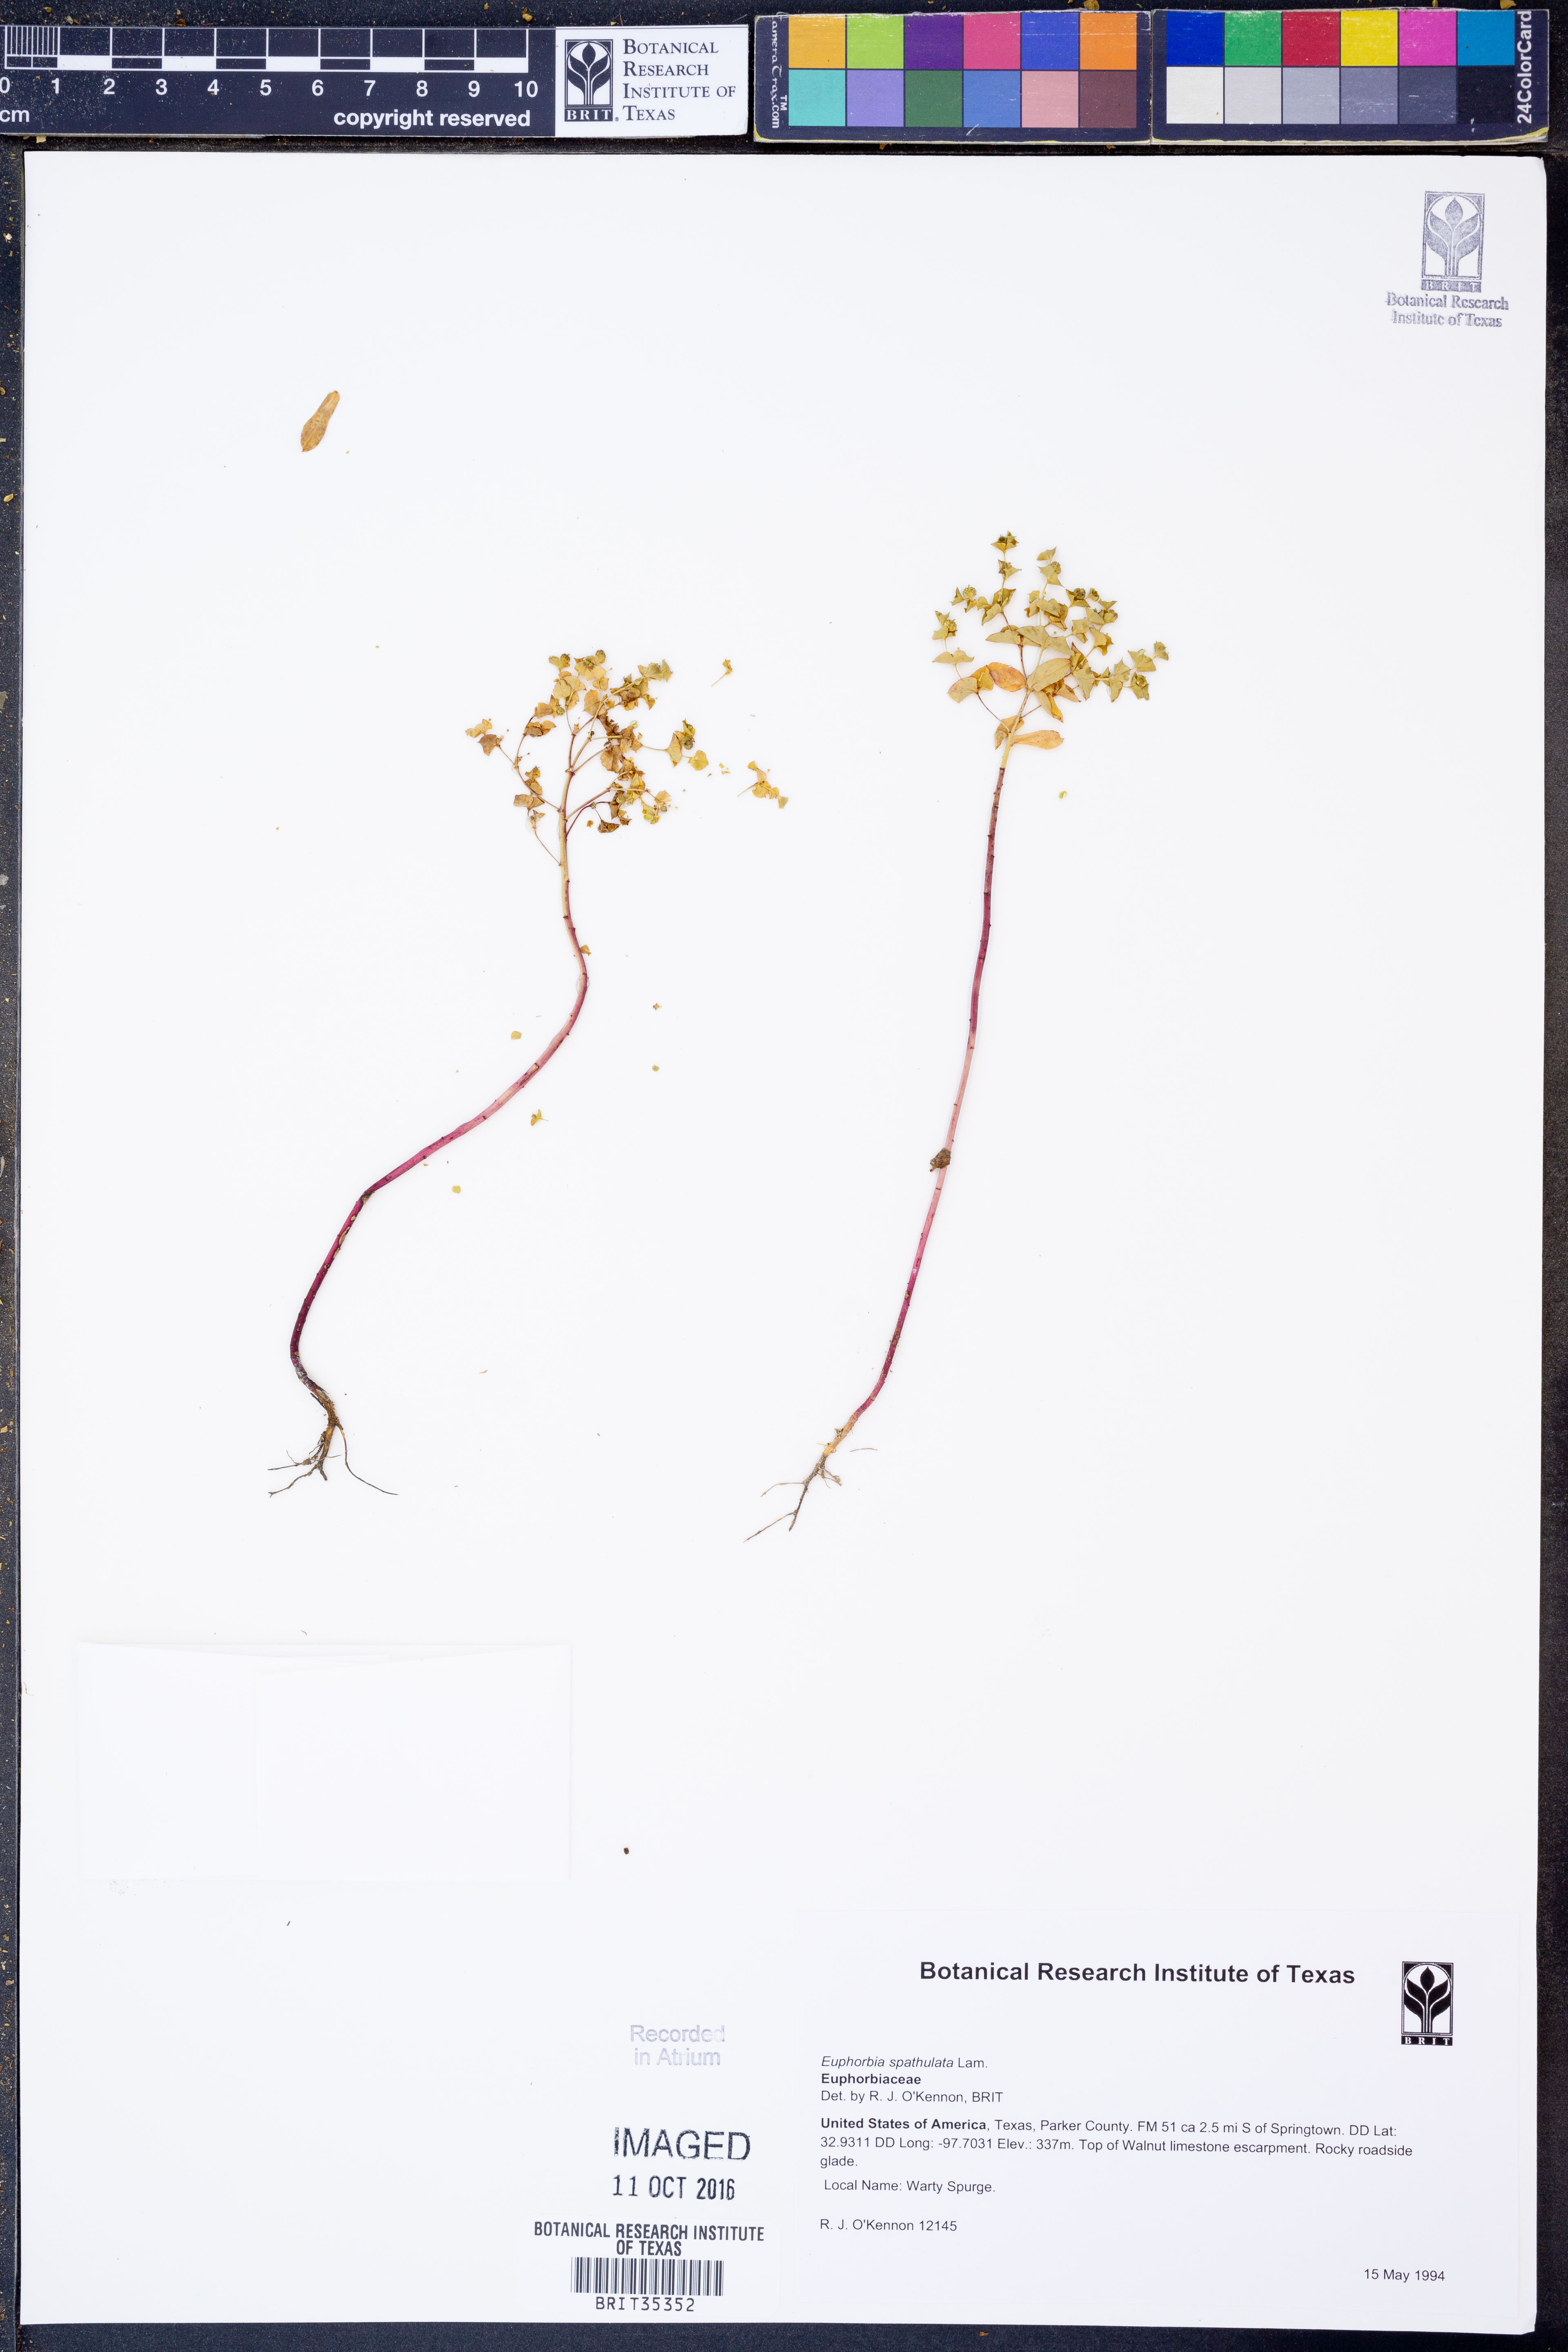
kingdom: Plantae
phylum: Tracheophyta
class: Magnoliopsida
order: Malpighiales
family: Euphorbiaceae
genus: Euphorbia
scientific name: Euphorbia spathulata
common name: Blunt spurge
